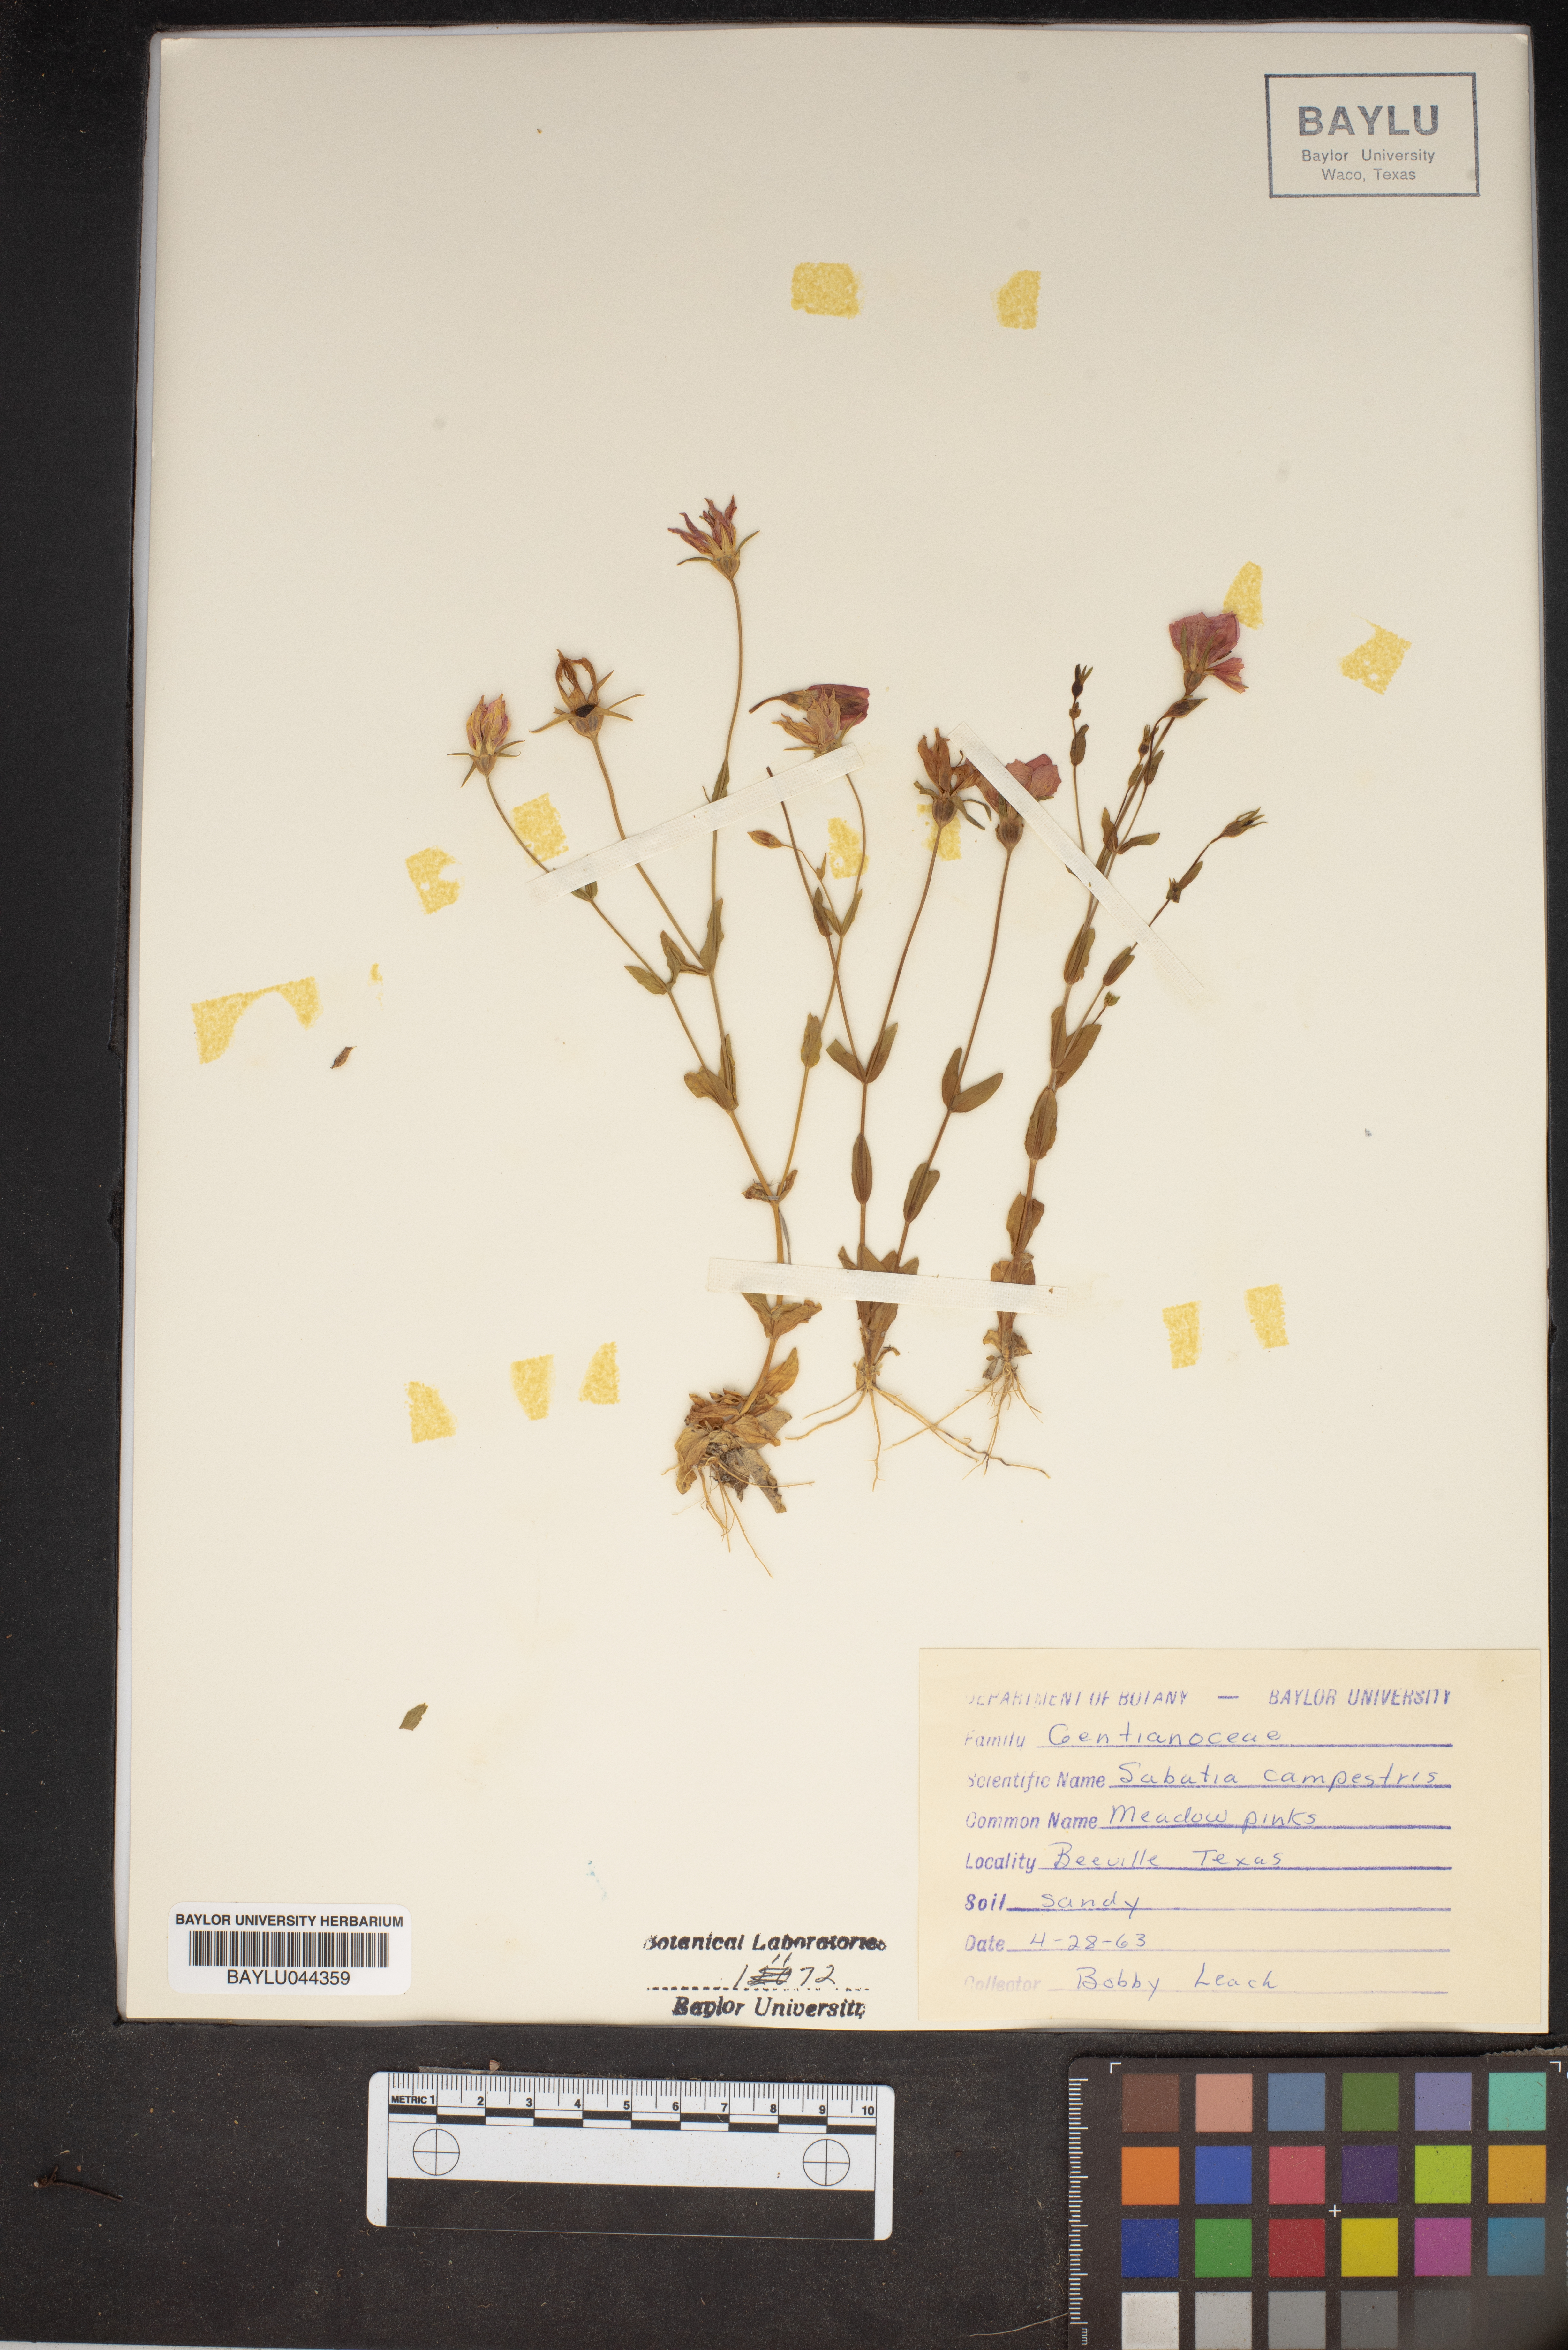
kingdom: Plantae
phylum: Tracheophyta
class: Magnoliopsida
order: Gentianales
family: Gentianaceae
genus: Sabatia
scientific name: Sabatia campestris
